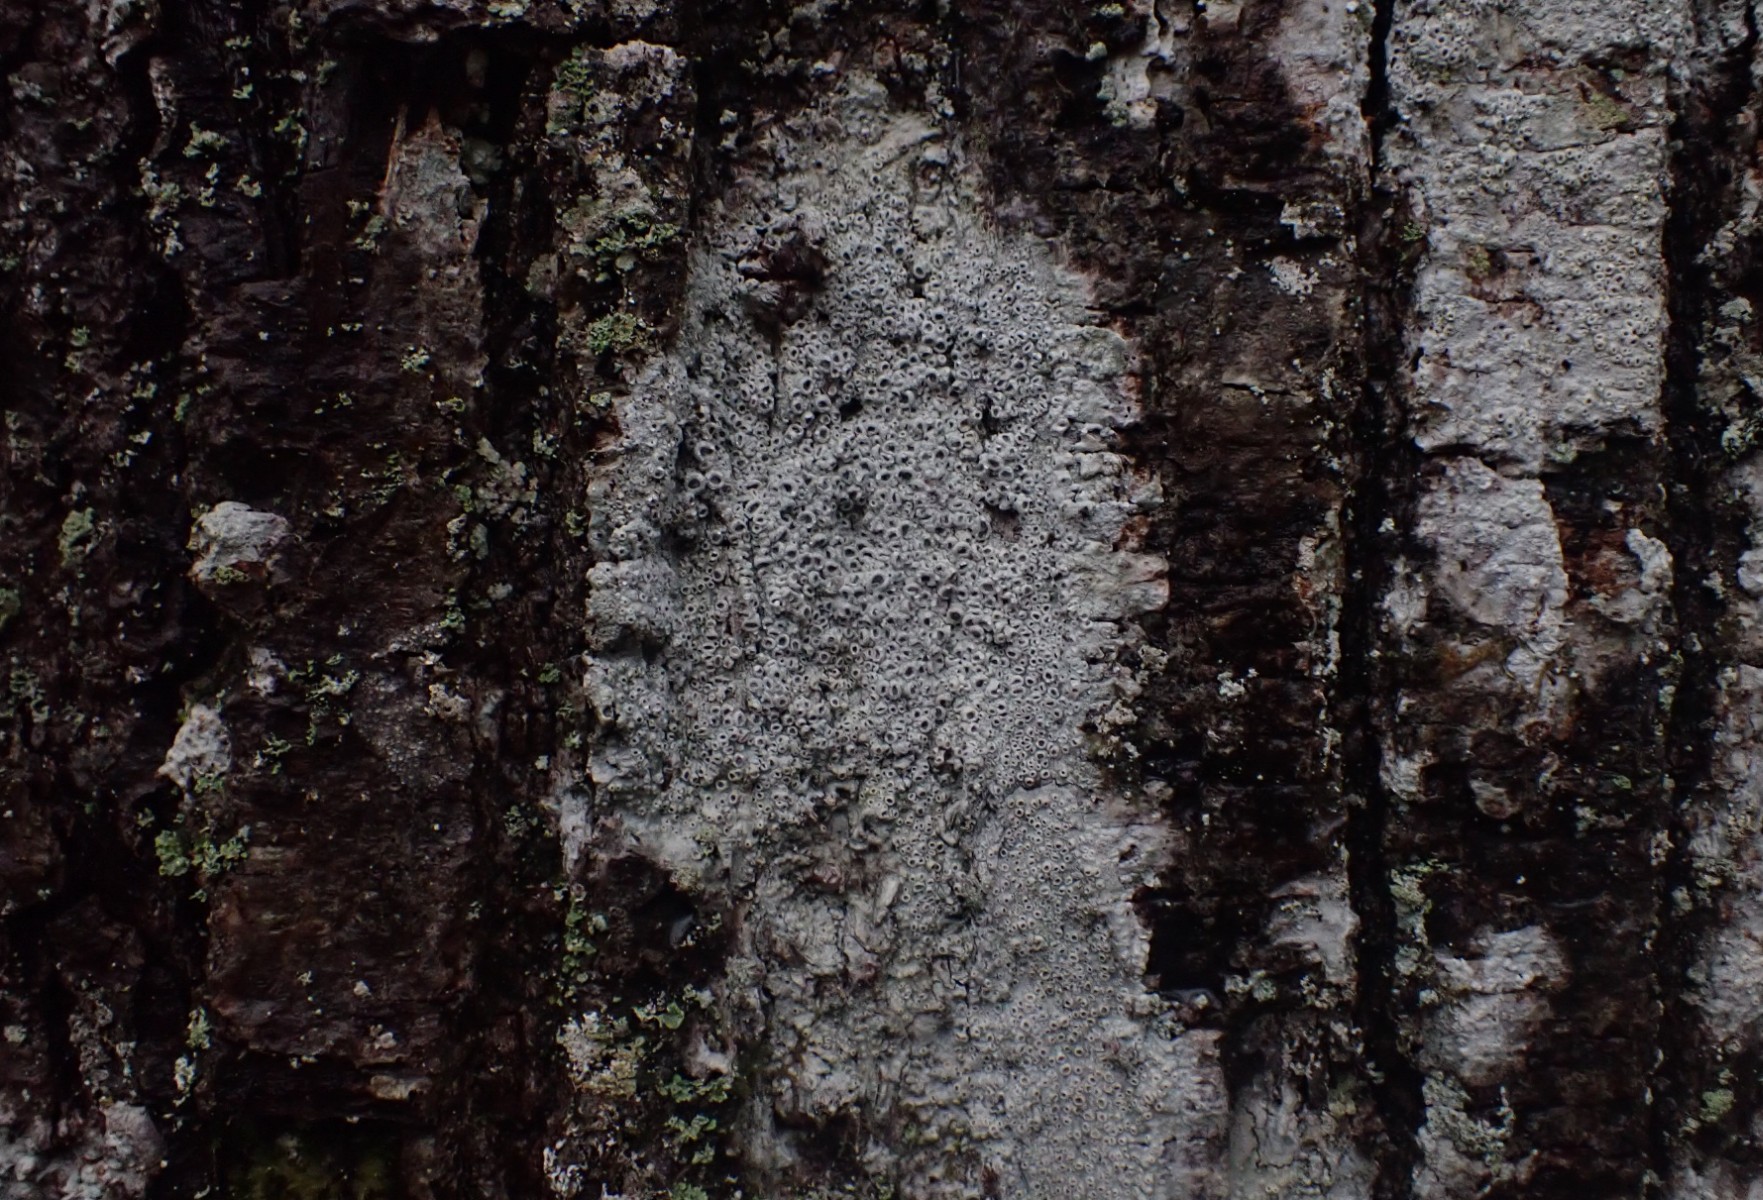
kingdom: Fungi
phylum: Ascomycota
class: Lecanoromycetes
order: Ostropales
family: Graphidaceae
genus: Thelotrema
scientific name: Thelotrema lepadinum
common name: almindelig slørkantlav
